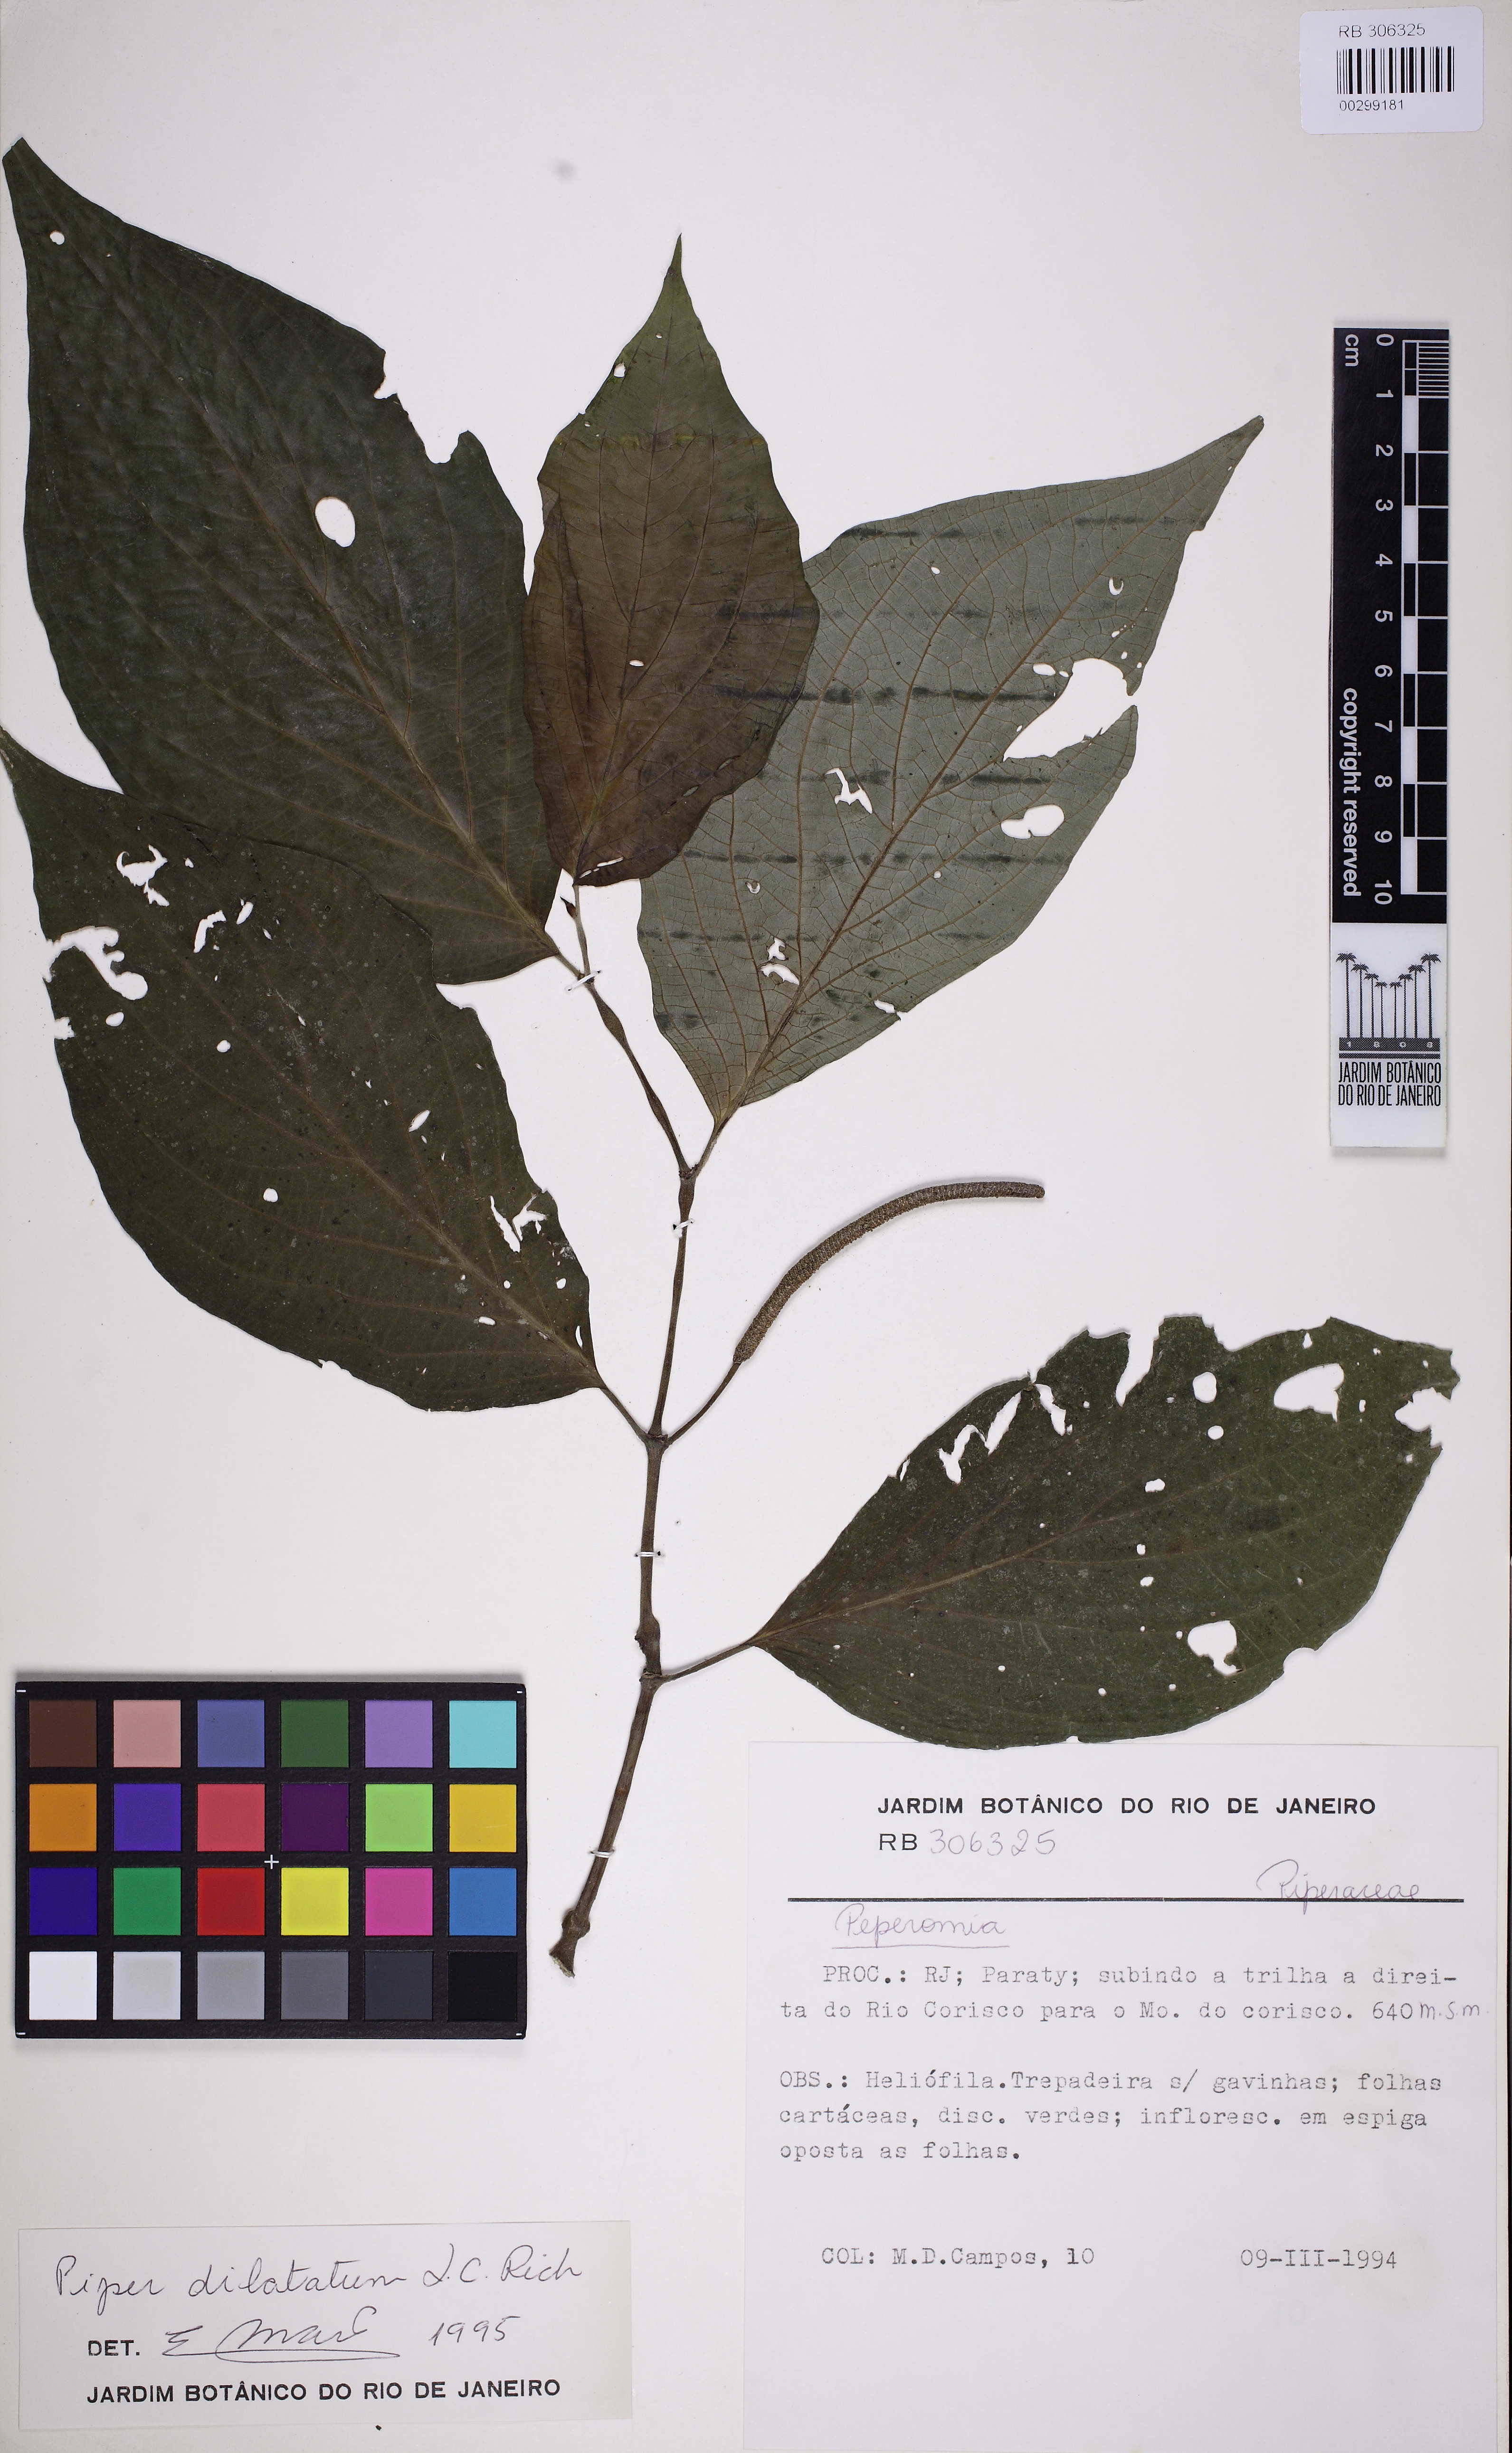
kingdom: Plantae
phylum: Tracheophyta
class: Magnoliopsida
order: Piperales
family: Piperaceae
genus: Piper
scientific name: Piper dilatatum
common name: Higuillo
